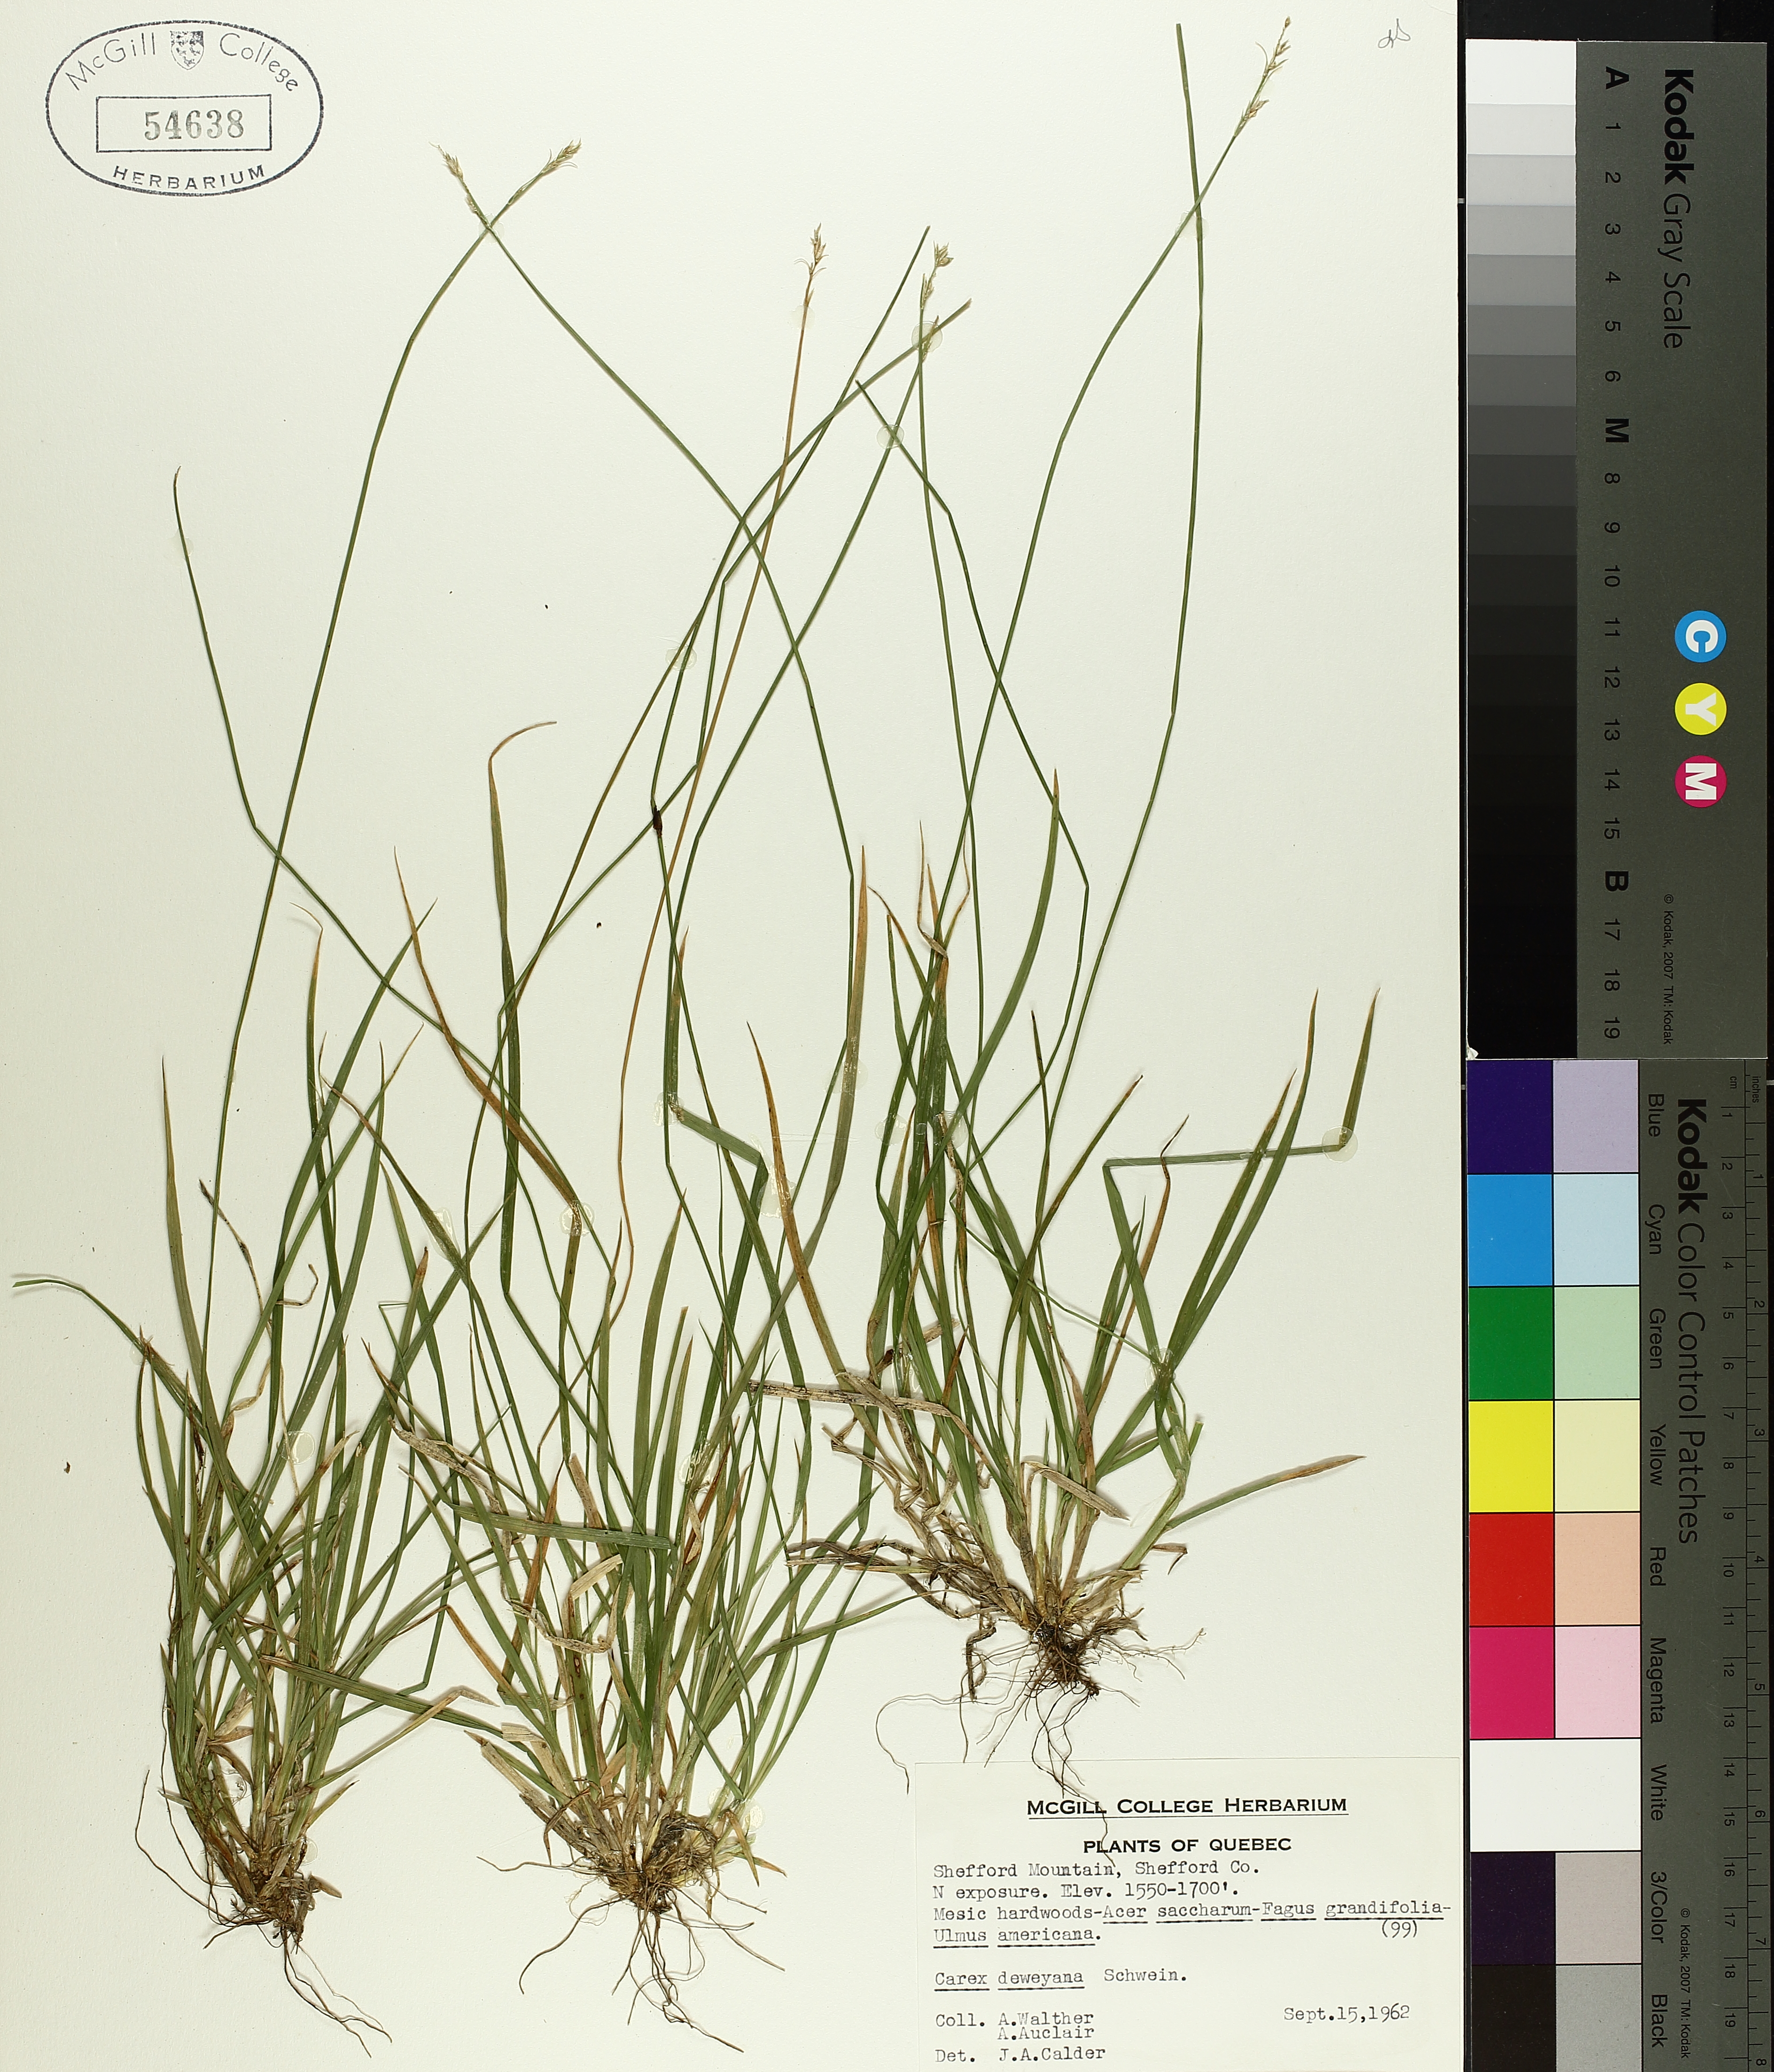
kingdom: Plantae
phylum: Tracheophyta
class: Liliopsida
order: Poales
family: Cyperaceae
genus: Carex
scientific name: Carex deweyana
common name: Dewey's sedge
